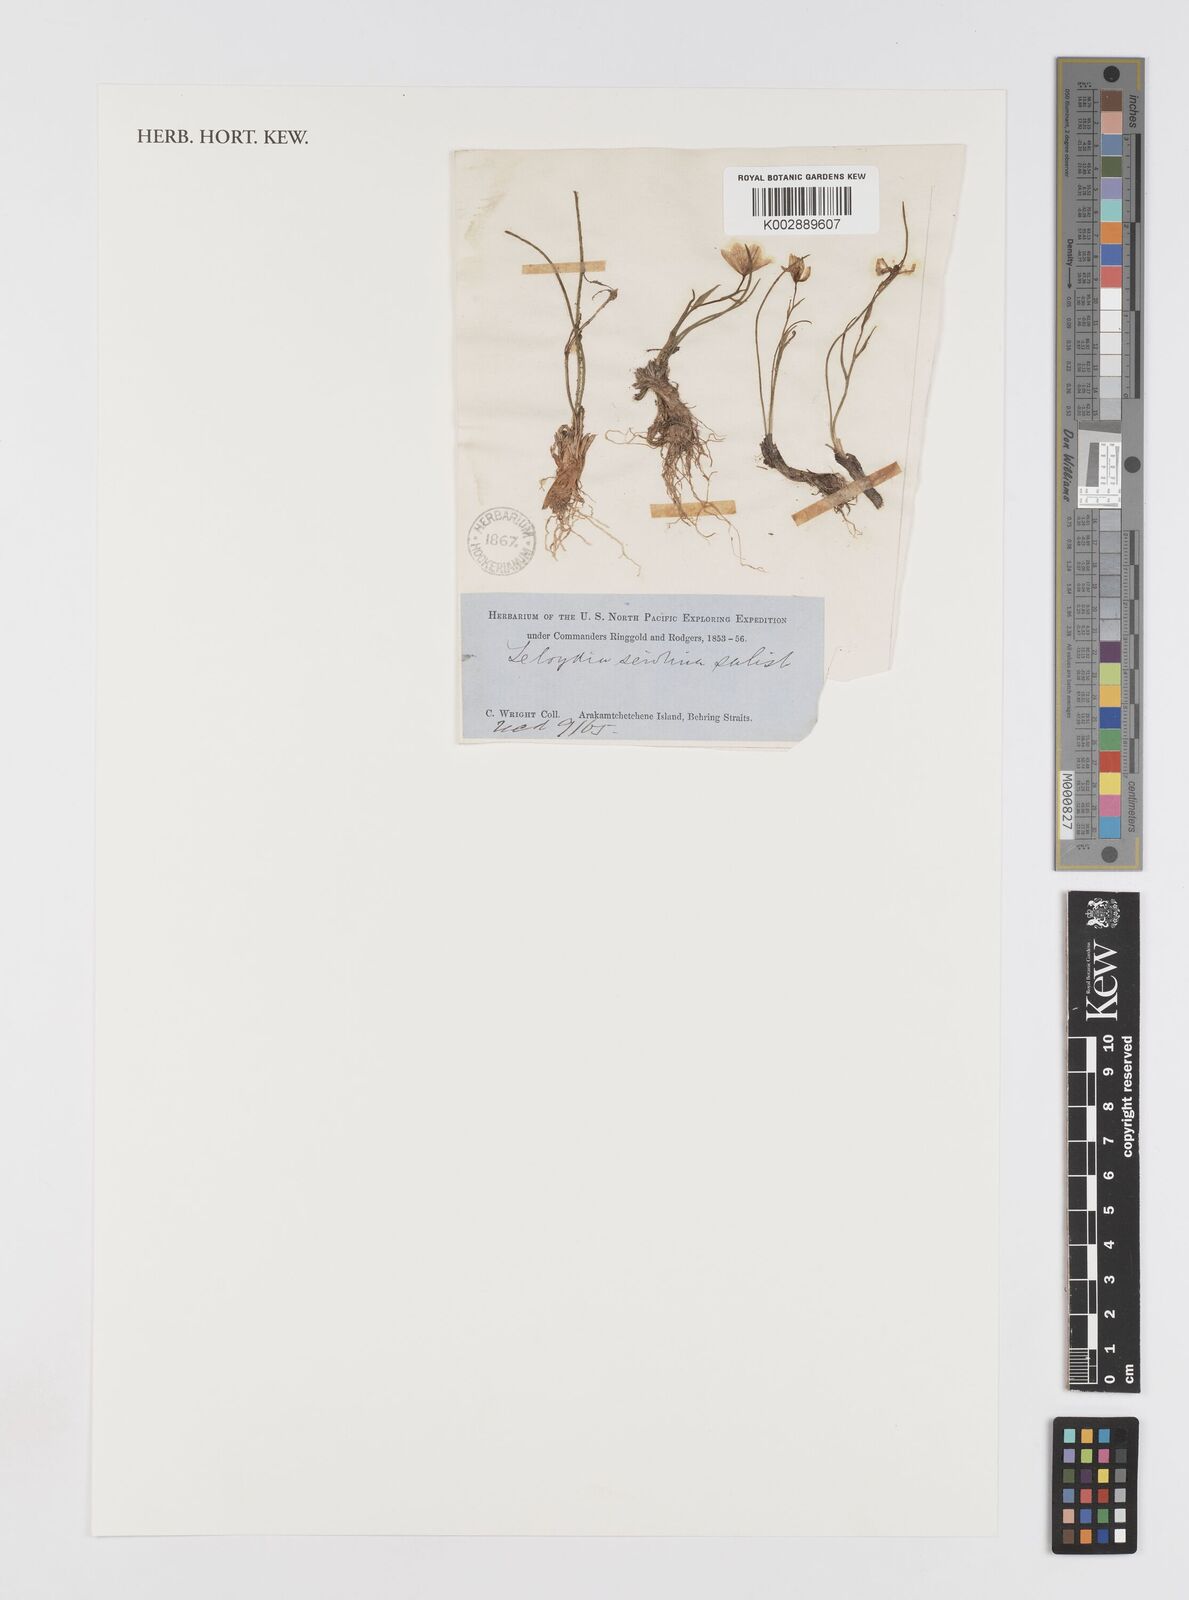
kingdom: Plantae
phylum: Tracheophyta
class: Liliopsida
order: Liliales
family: Liliaceae
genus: Gagea
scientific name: Gagea serotina
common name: Snowdon lily
